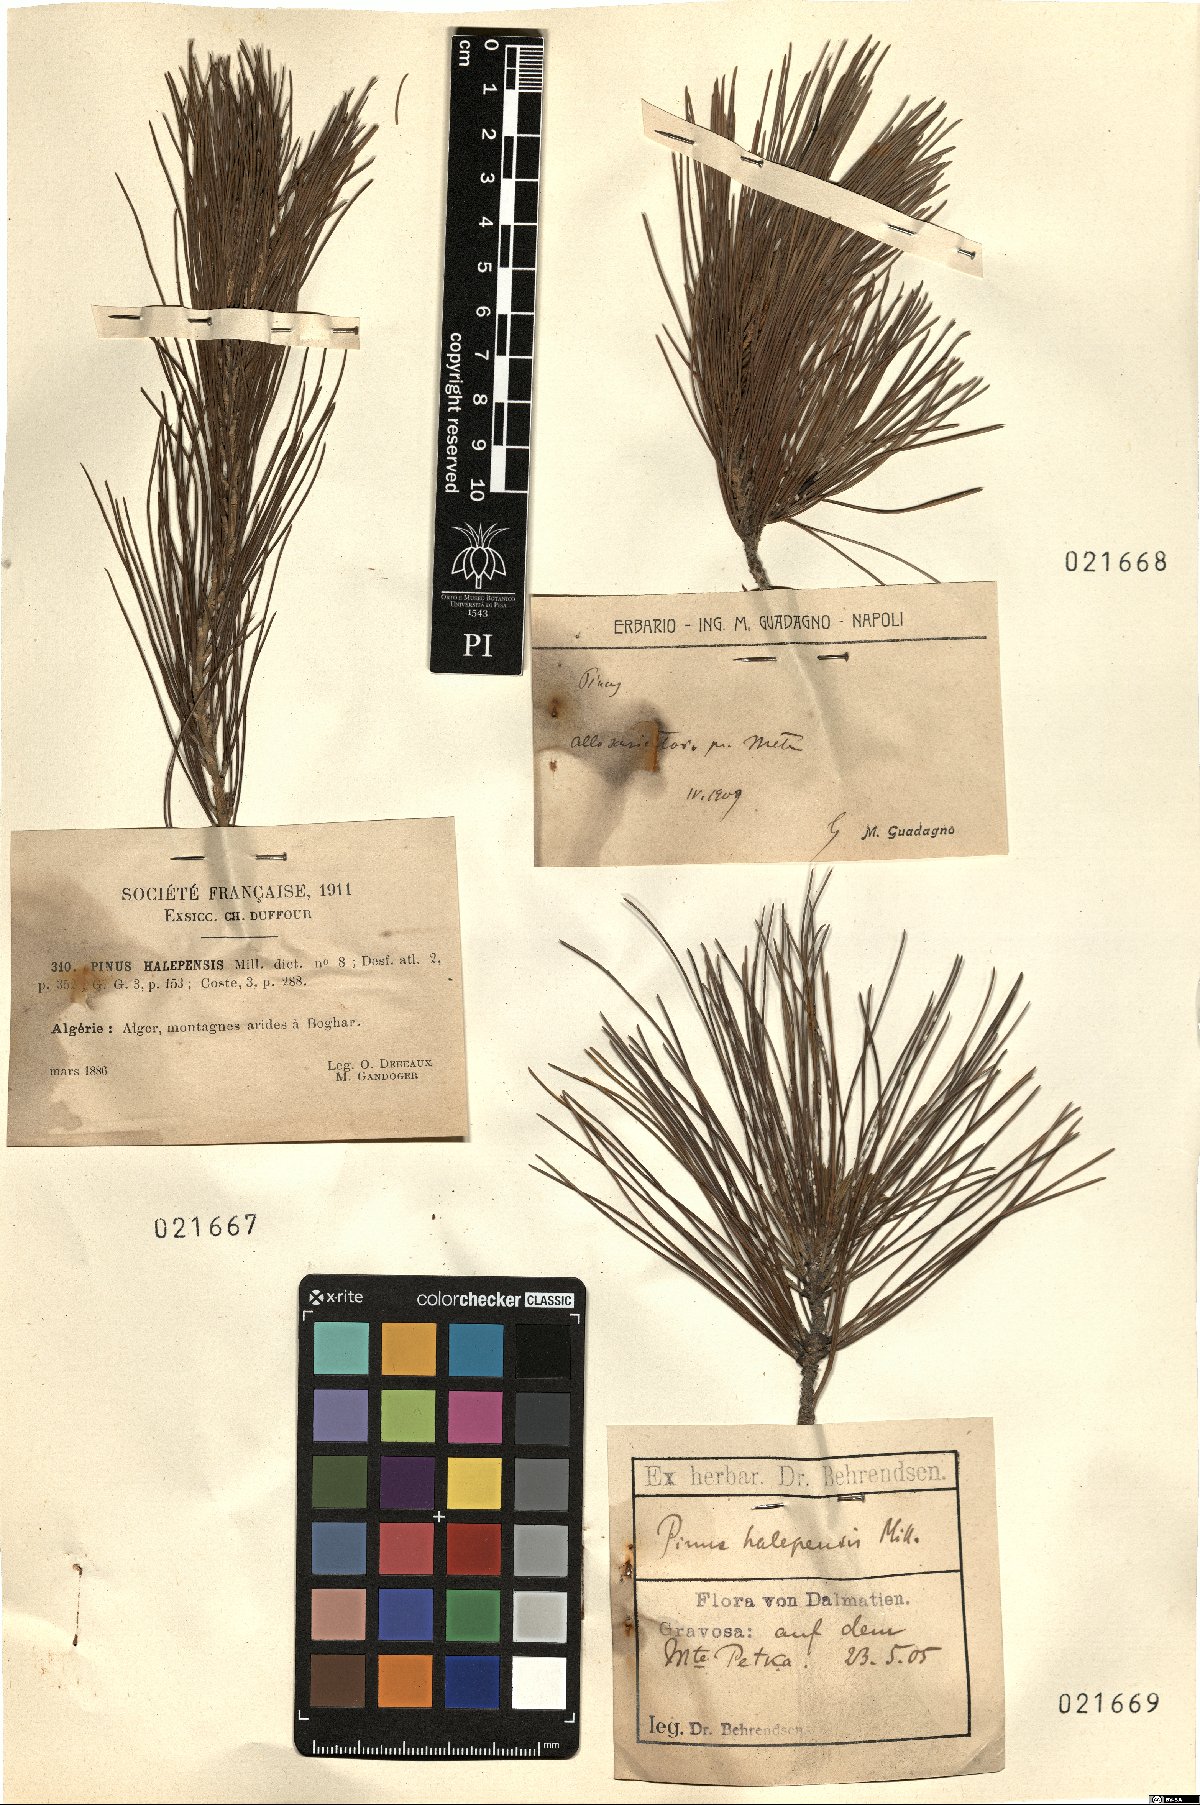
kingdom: Plantae
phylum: Tracheophyta
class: Pinopsida
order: Pinales
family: Pinaceae
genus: Pinus
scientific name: Pinus halepensis
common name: Aleppo pine
